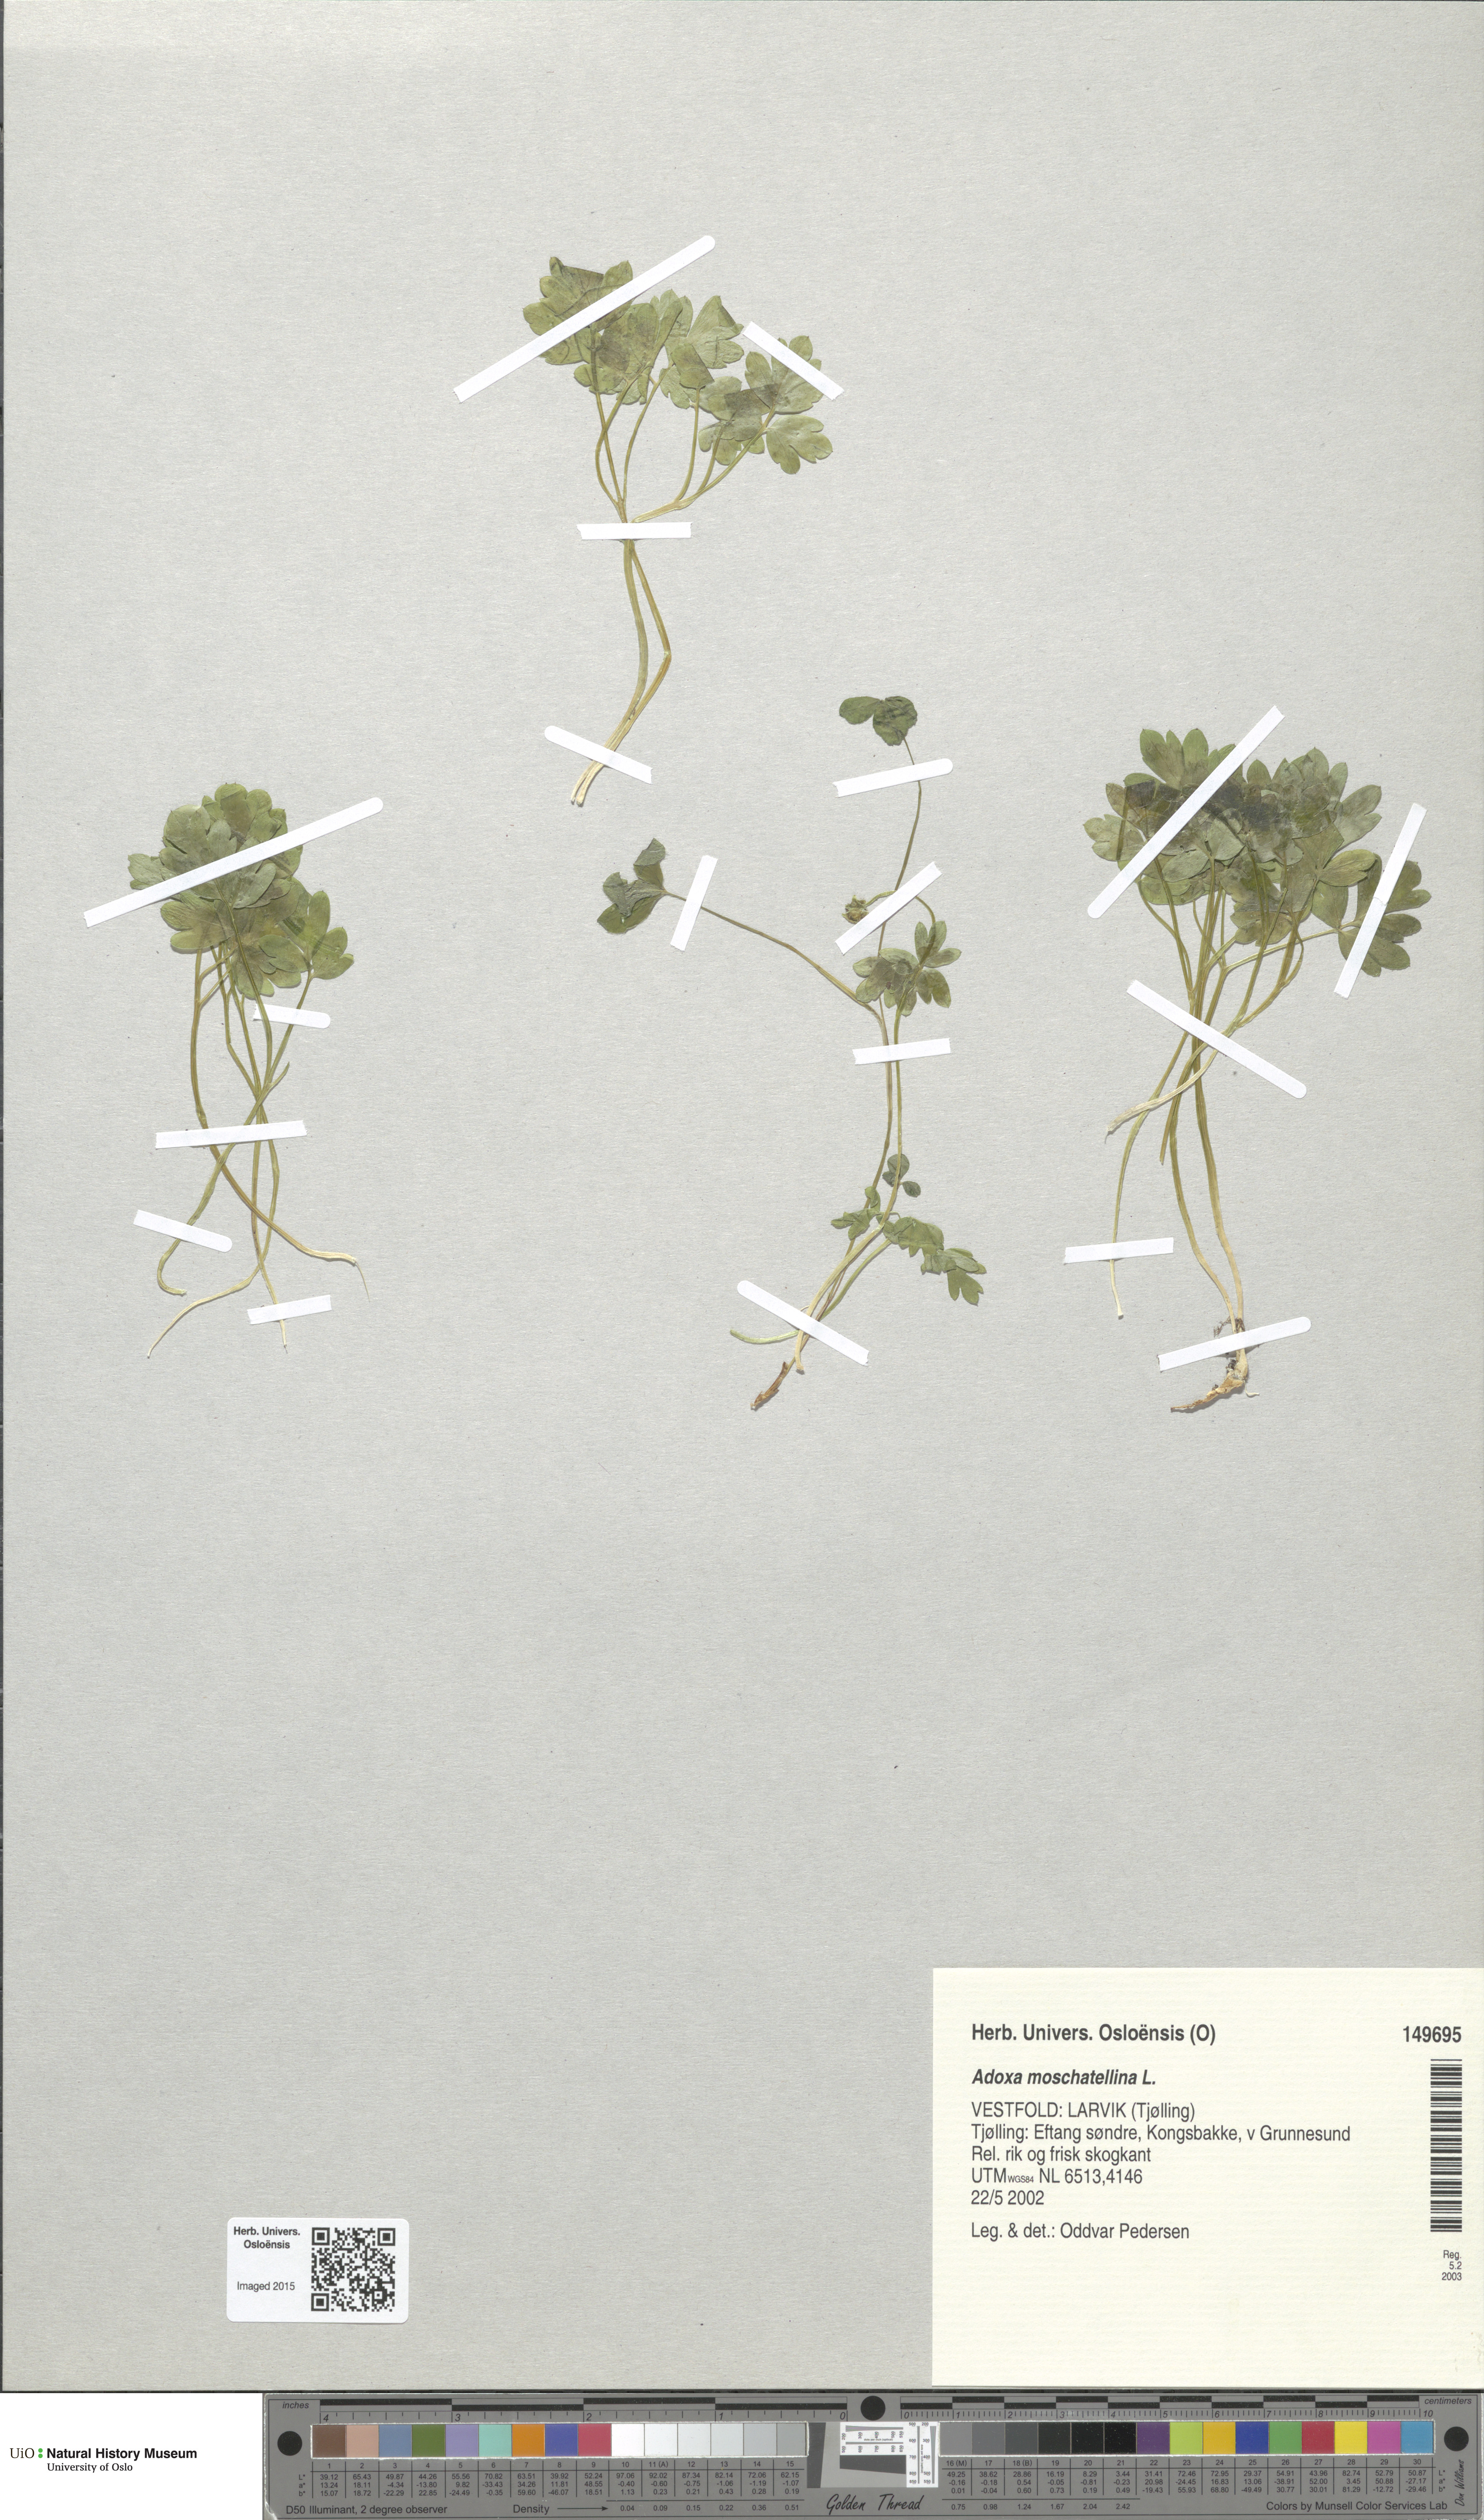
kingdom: Plantae
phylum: Tracheophyta
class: Magnoliopsida
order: Dipsacales
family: Viburnaceae
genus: Adoxa
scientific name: Adoxa moschatellina
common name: Moschatel
